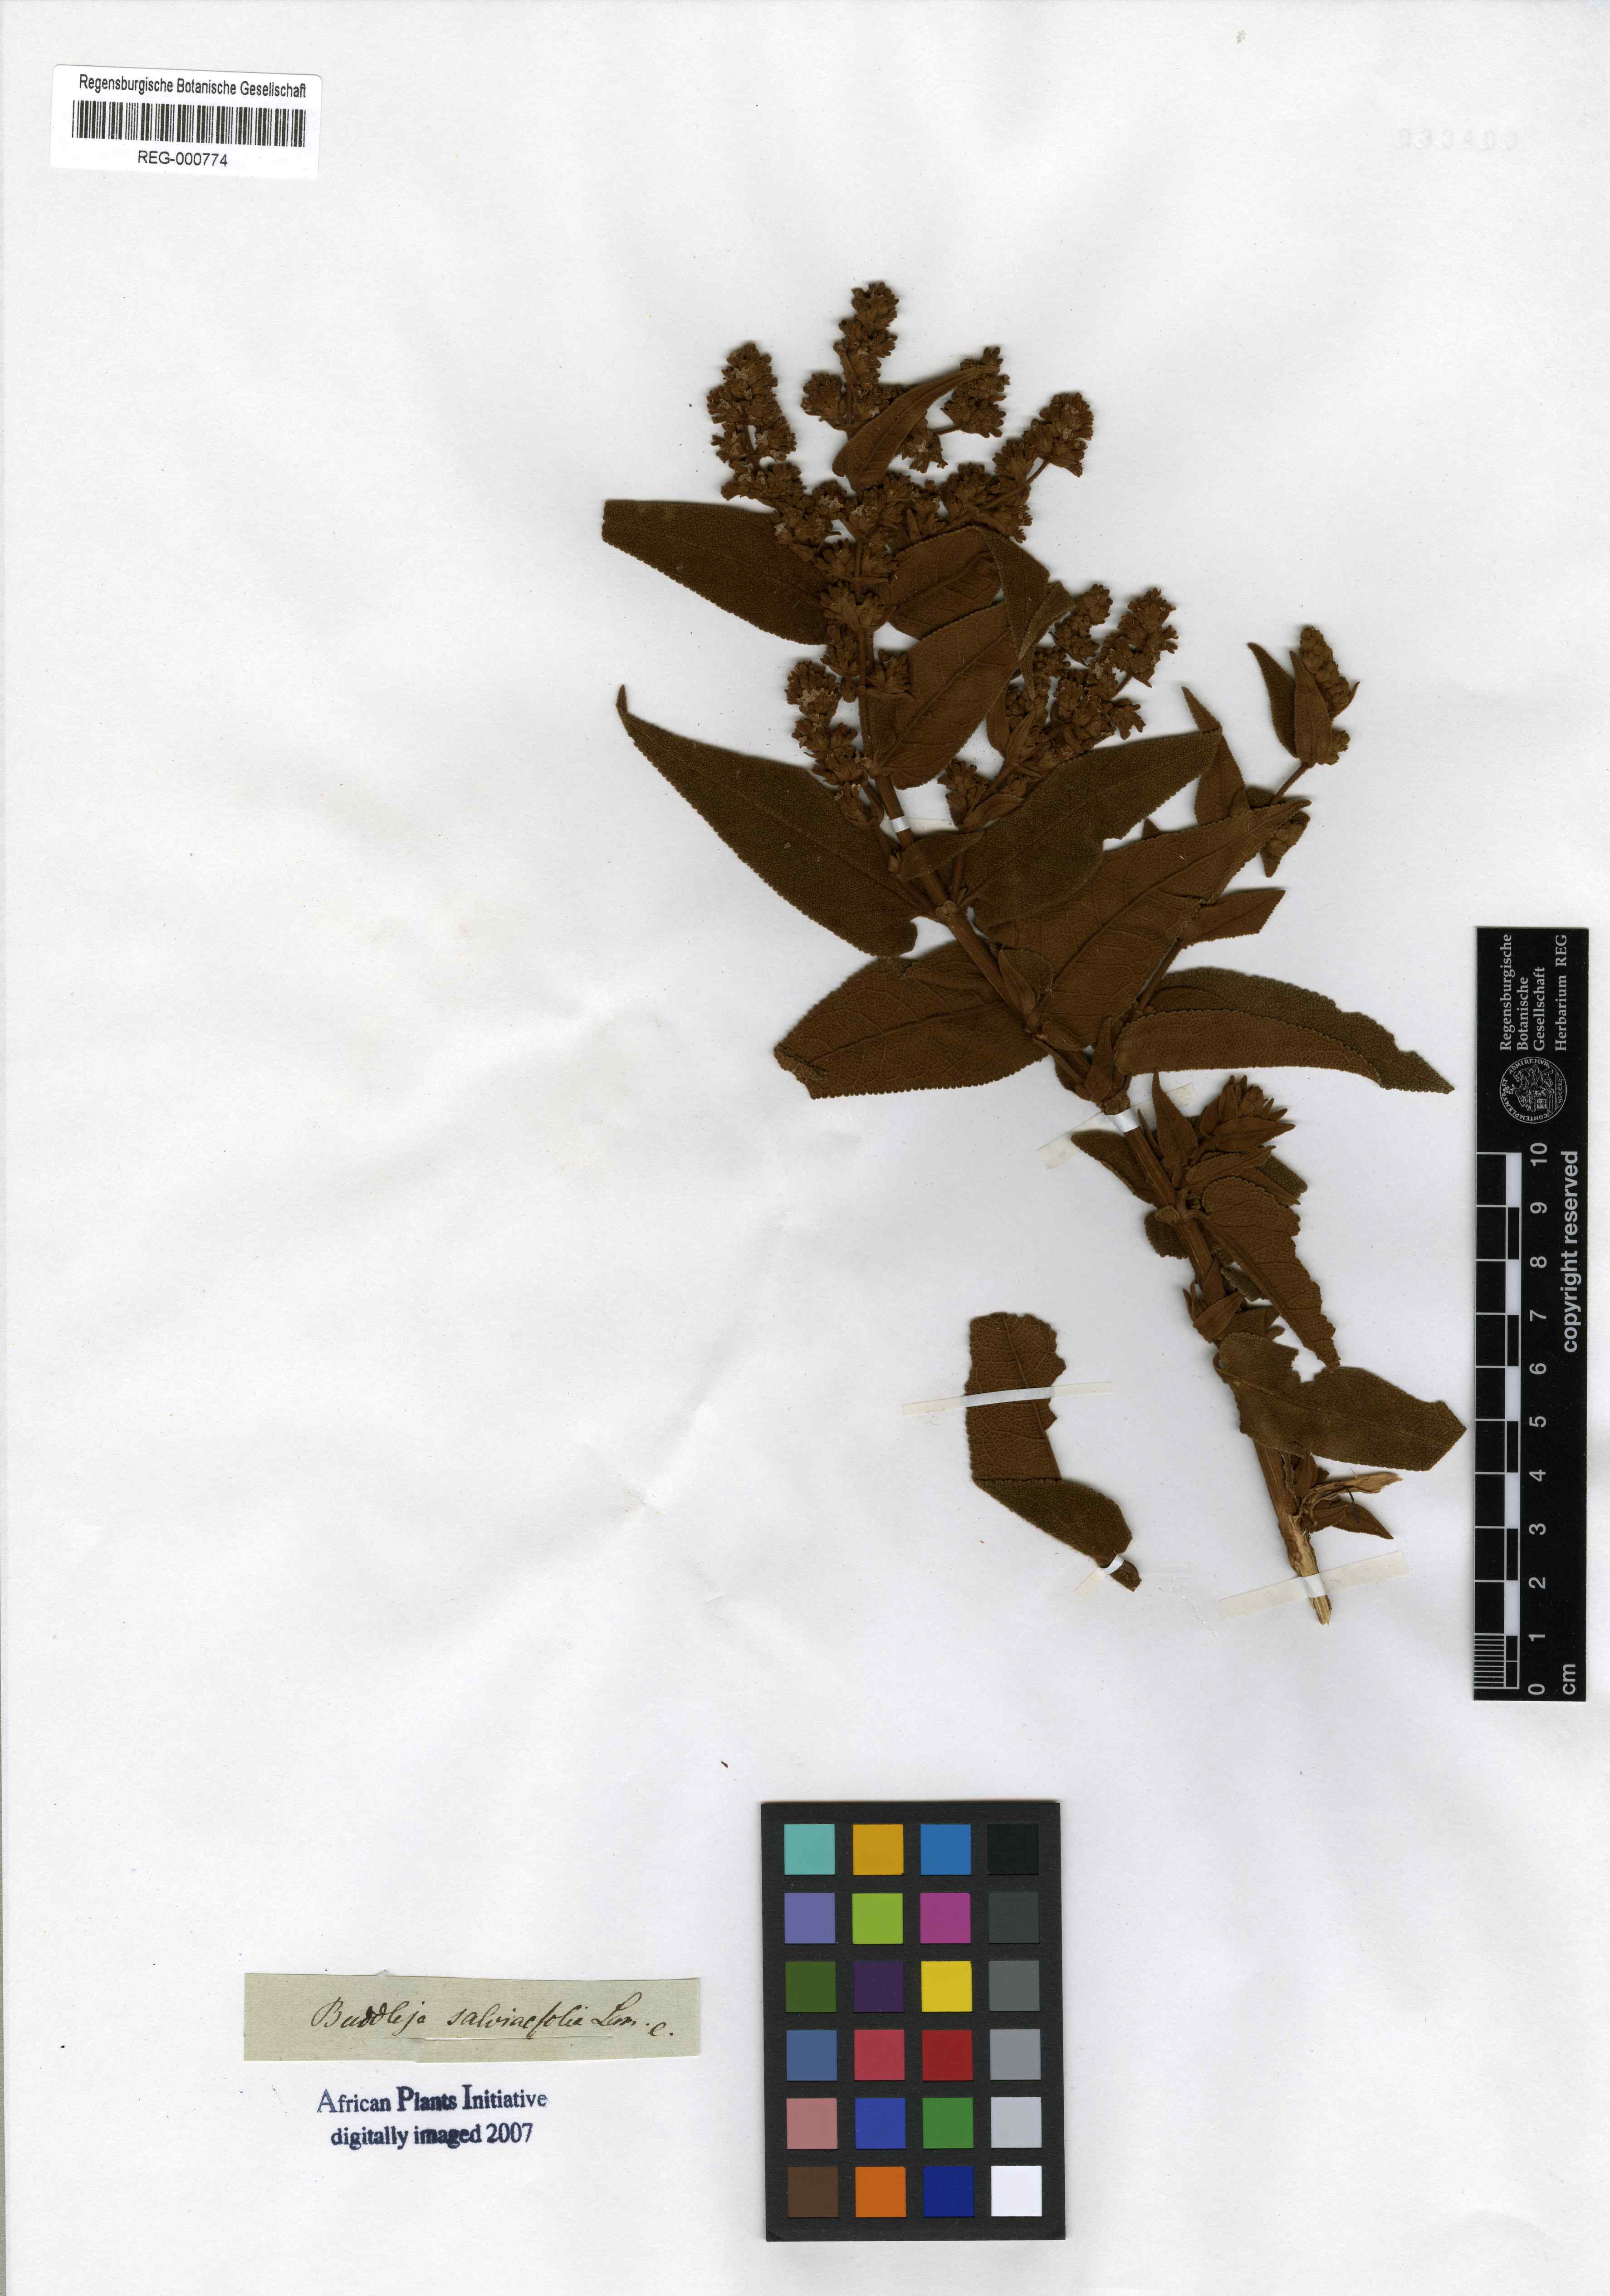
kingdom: Plantae
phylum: Tracheophyta
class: Magnoliopsida
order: Lamiales
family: Scrophulariaceae
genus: Buddleja
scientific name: Buddleja salviifolia
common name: Sagewood
